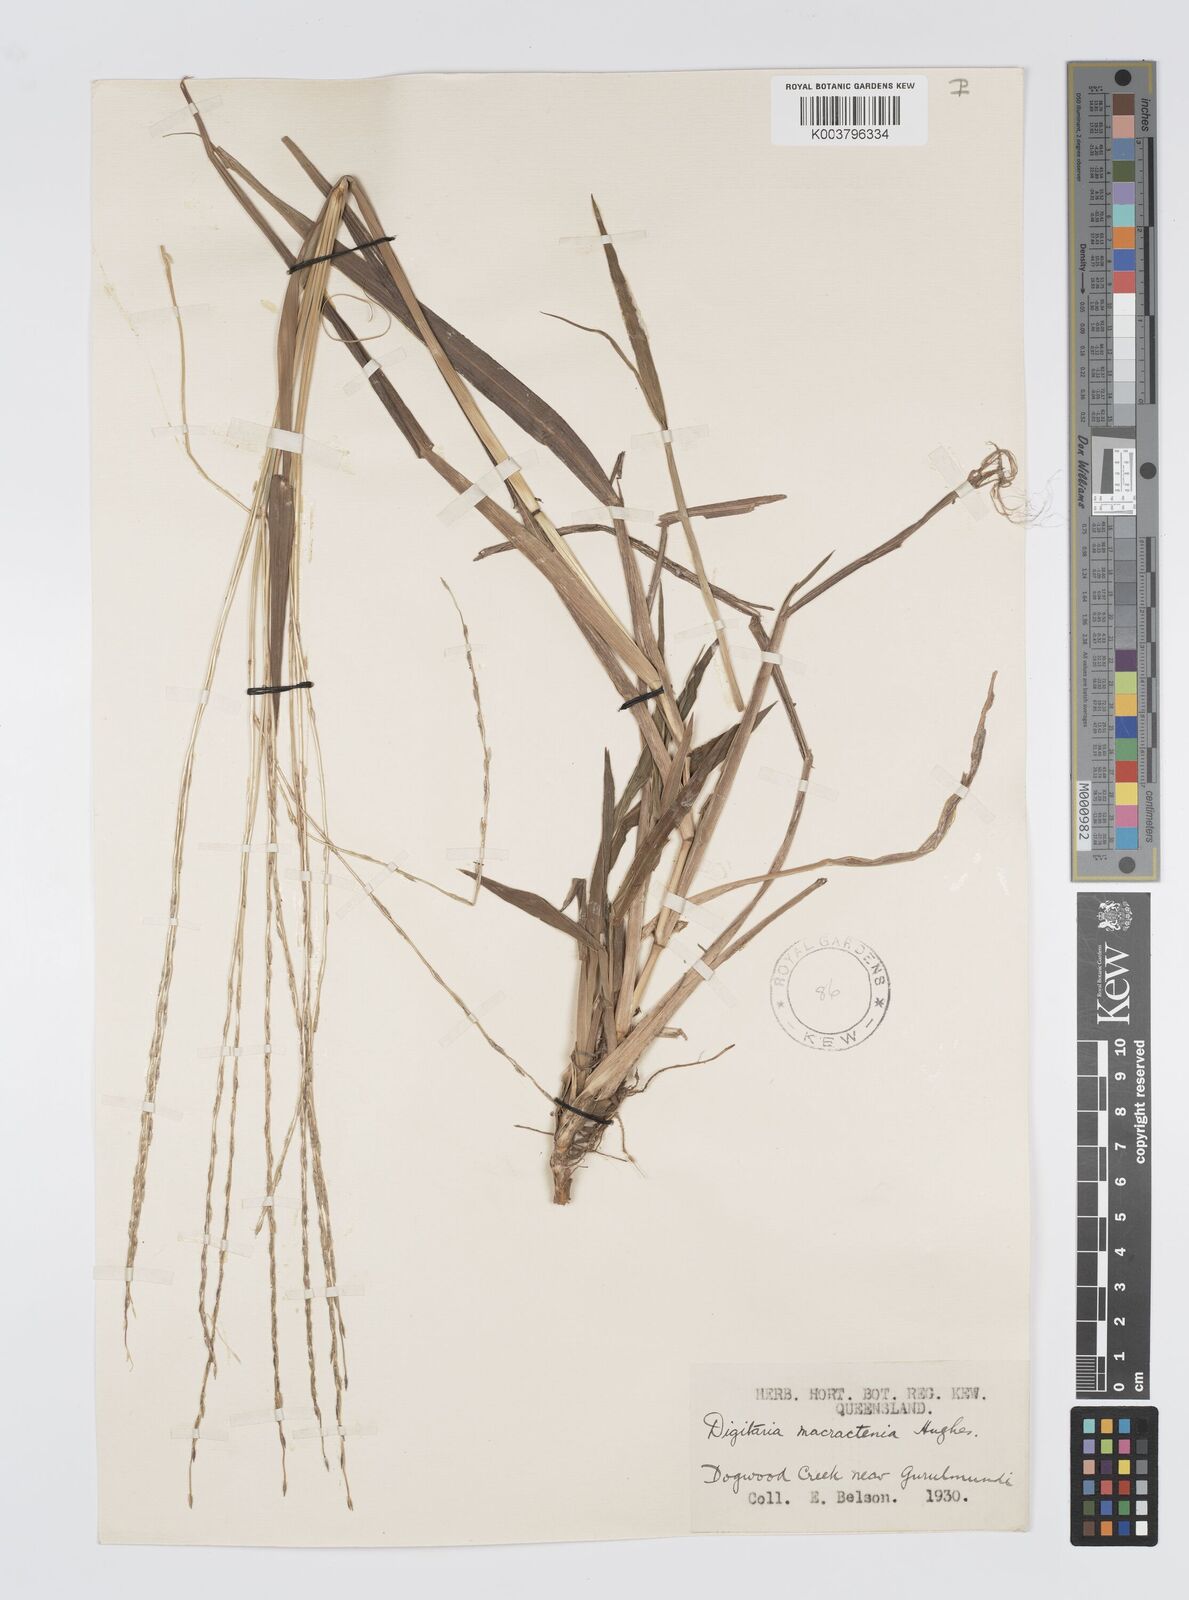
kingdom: Plantae
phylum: Tracheophyta
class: Liliopsida
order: Poales
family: Poaceae
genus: Digitaria
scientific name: Digitaria spec
